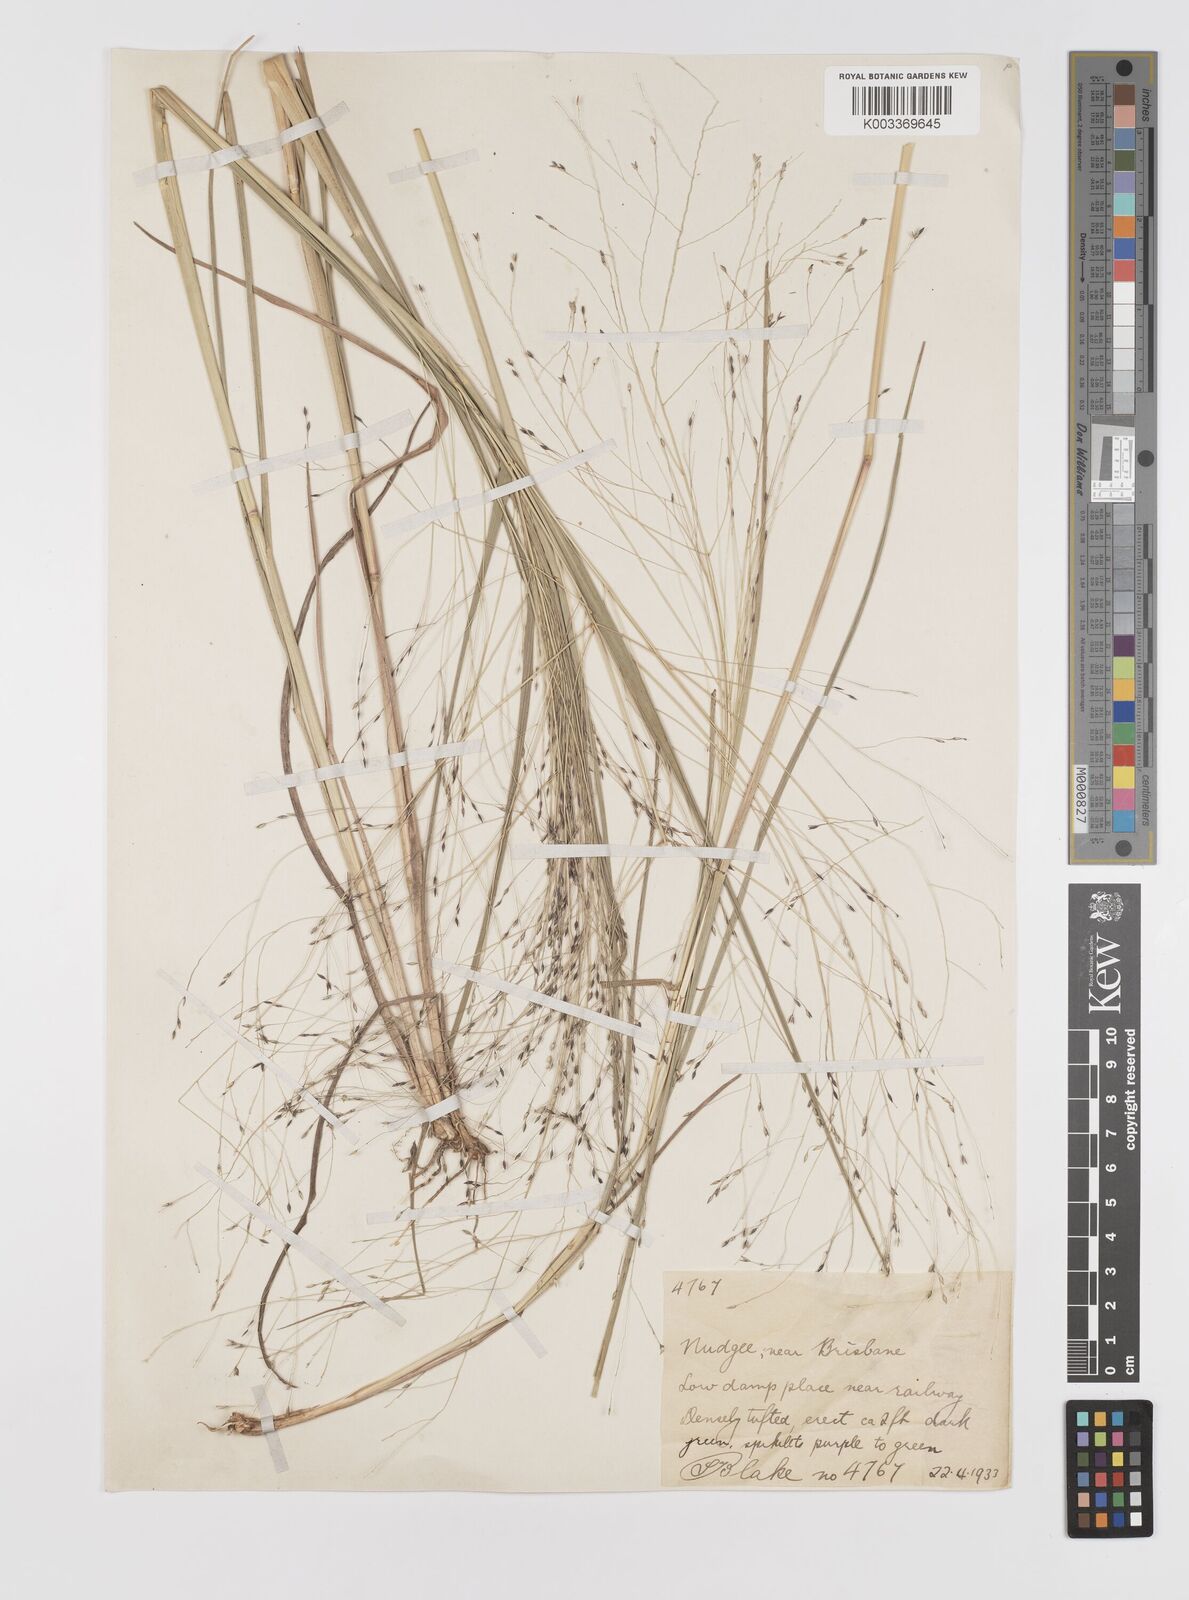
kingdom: Plantae
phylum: Tracheophyta
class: Liliopsida
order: Poales
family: Poaceae
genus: Panicum
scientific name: Panicum decompositum
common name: Australian millet
